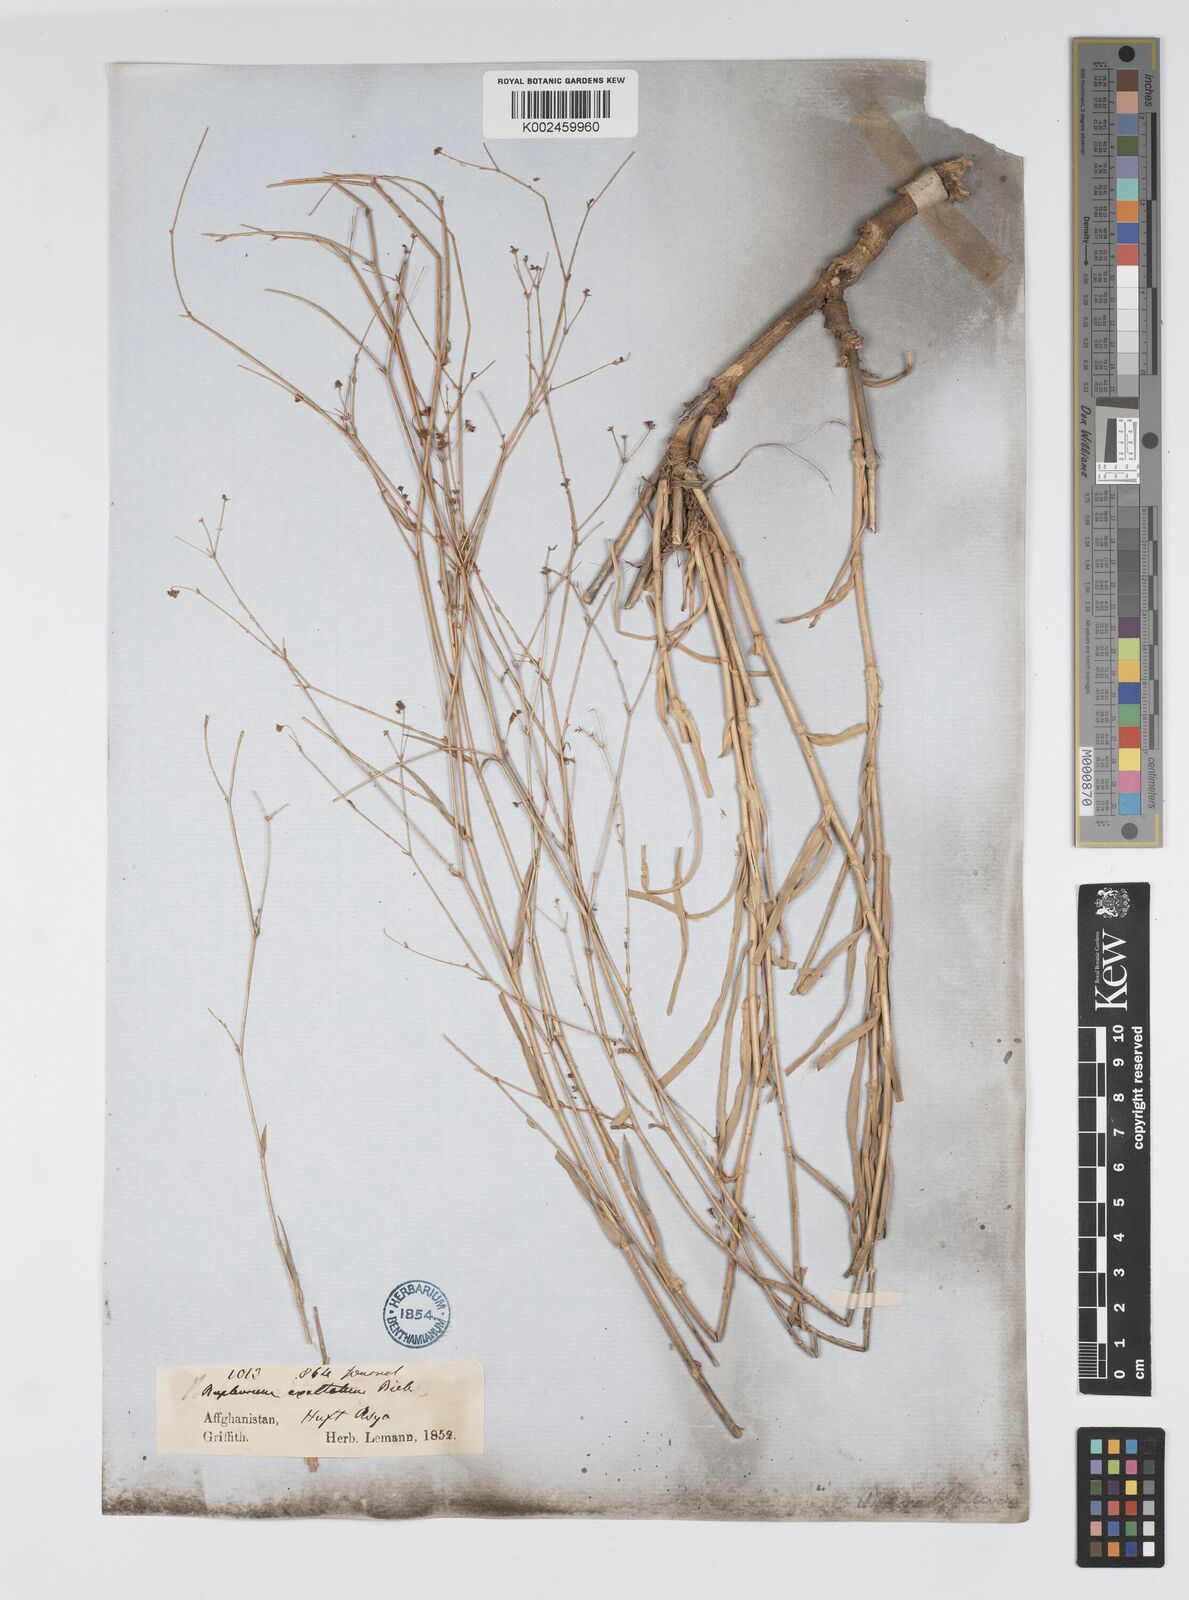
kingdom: Plantae
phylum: Tracheophyta
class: Magnoliopsida
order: Apiales
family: Apiaceae
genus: Bupleurum
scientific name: Bupleurum falcatum
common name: Sickle-leaved hare's-ear
